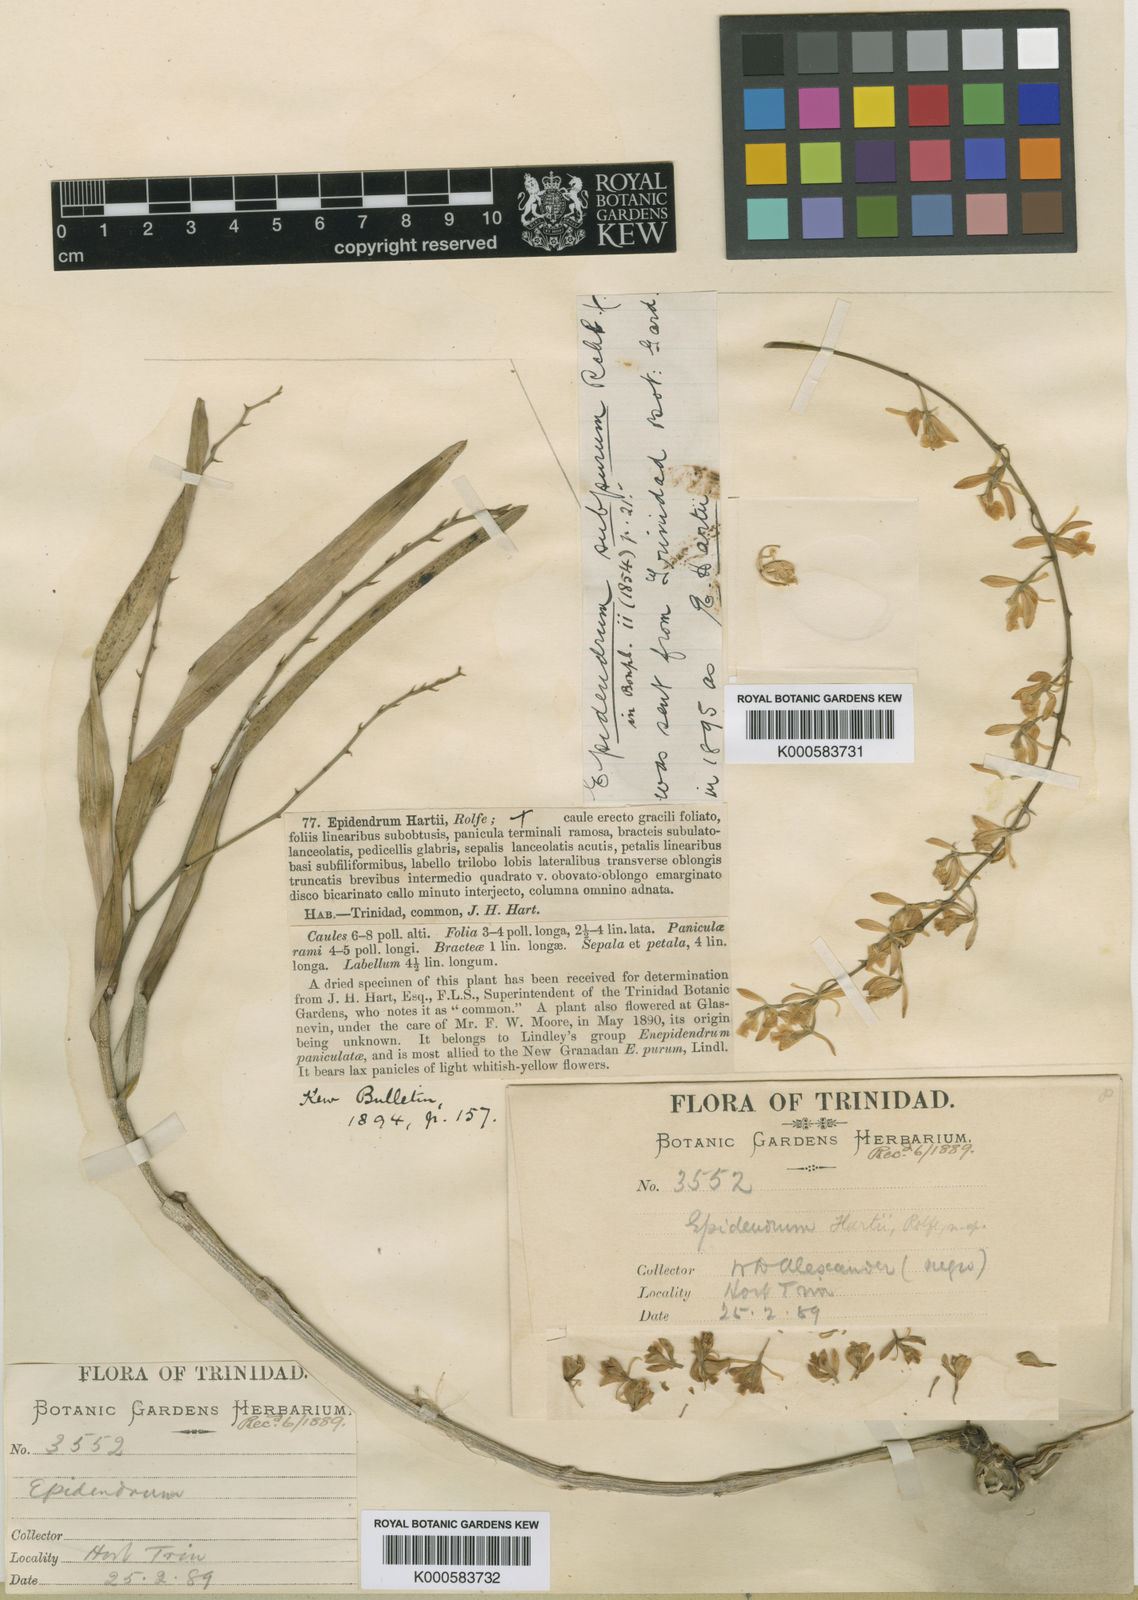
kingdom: Plantae
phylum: Tracheophyta
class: Liliopsida
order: Asparagales
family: Orchidaceae
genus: Epidendrum
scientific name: Epidendrum subpurum
